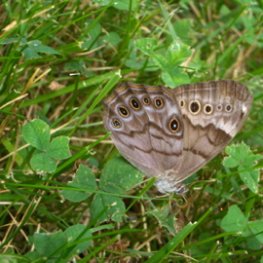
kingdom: Animalia
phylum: Arthropoda
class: Insecta
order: Lepidoptera
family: Nymphalidae
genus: Lethe
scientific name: Lethe anthedon
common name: Northern Pearly-Eye
